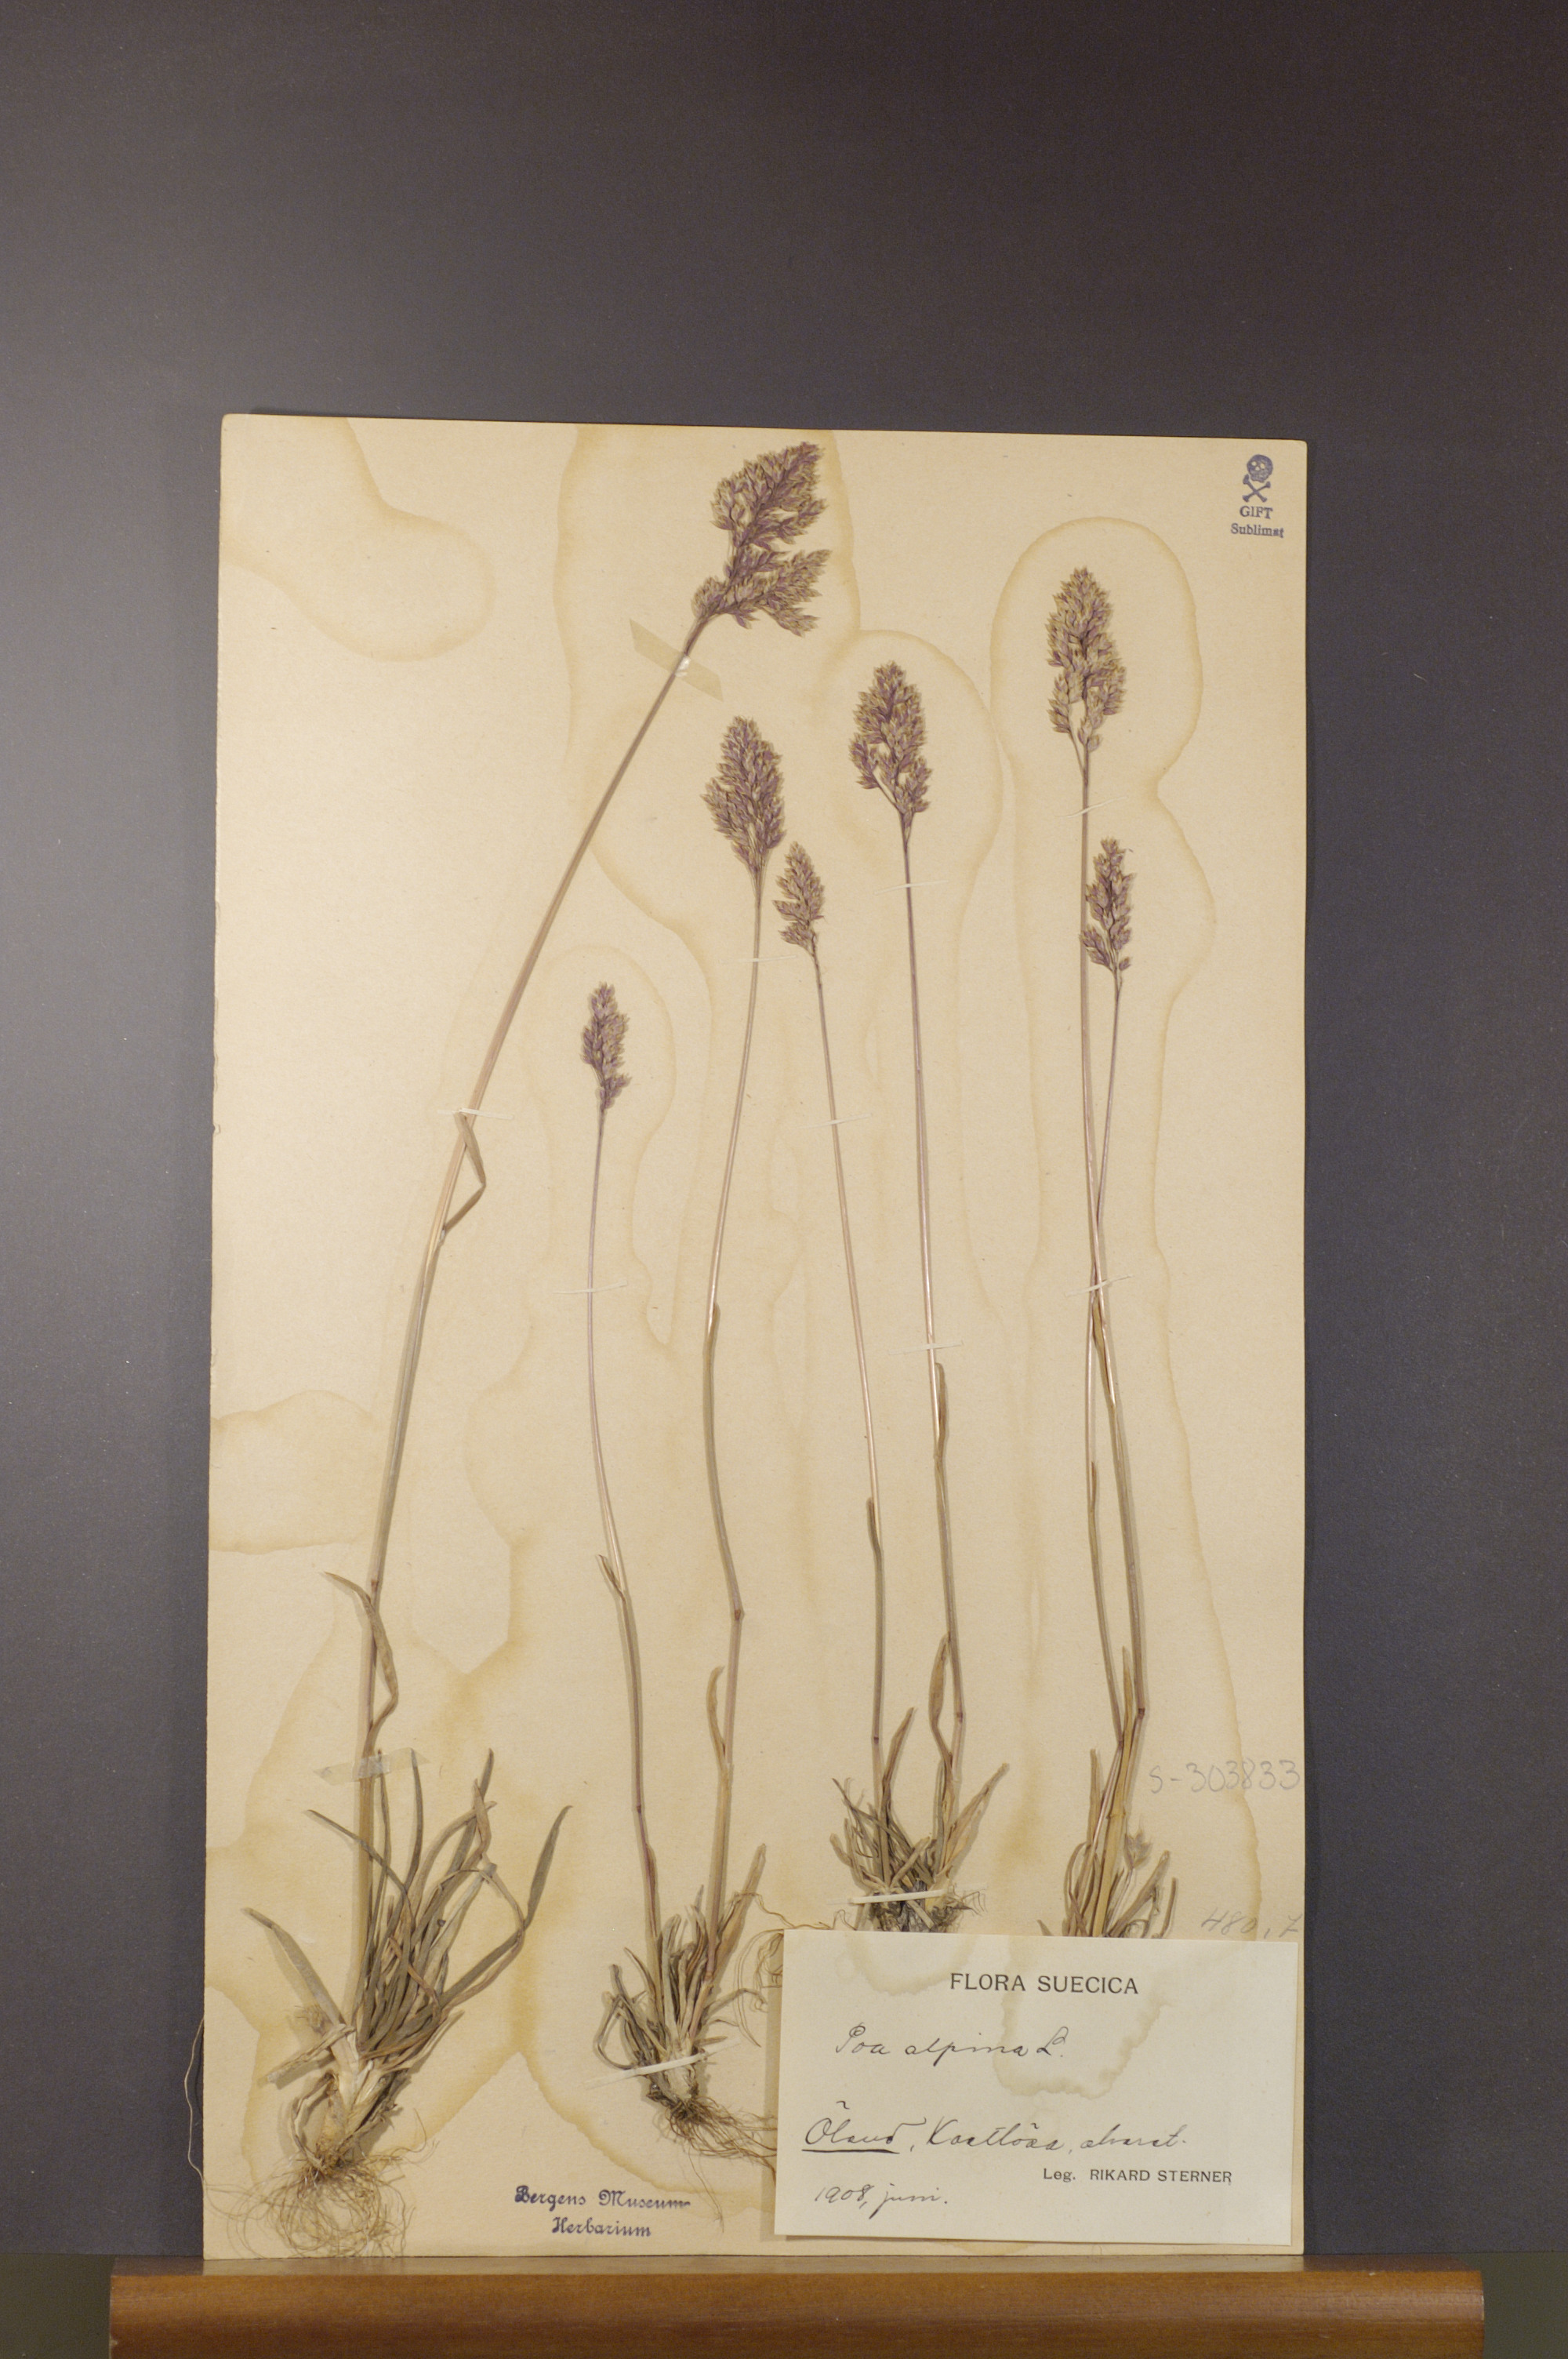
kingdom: Plantae
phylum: Tracheophyta
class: Liliopsida
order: Poales
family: Poaceae
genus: Poa
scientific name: Poa alpina
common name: Alpine bluegrass
